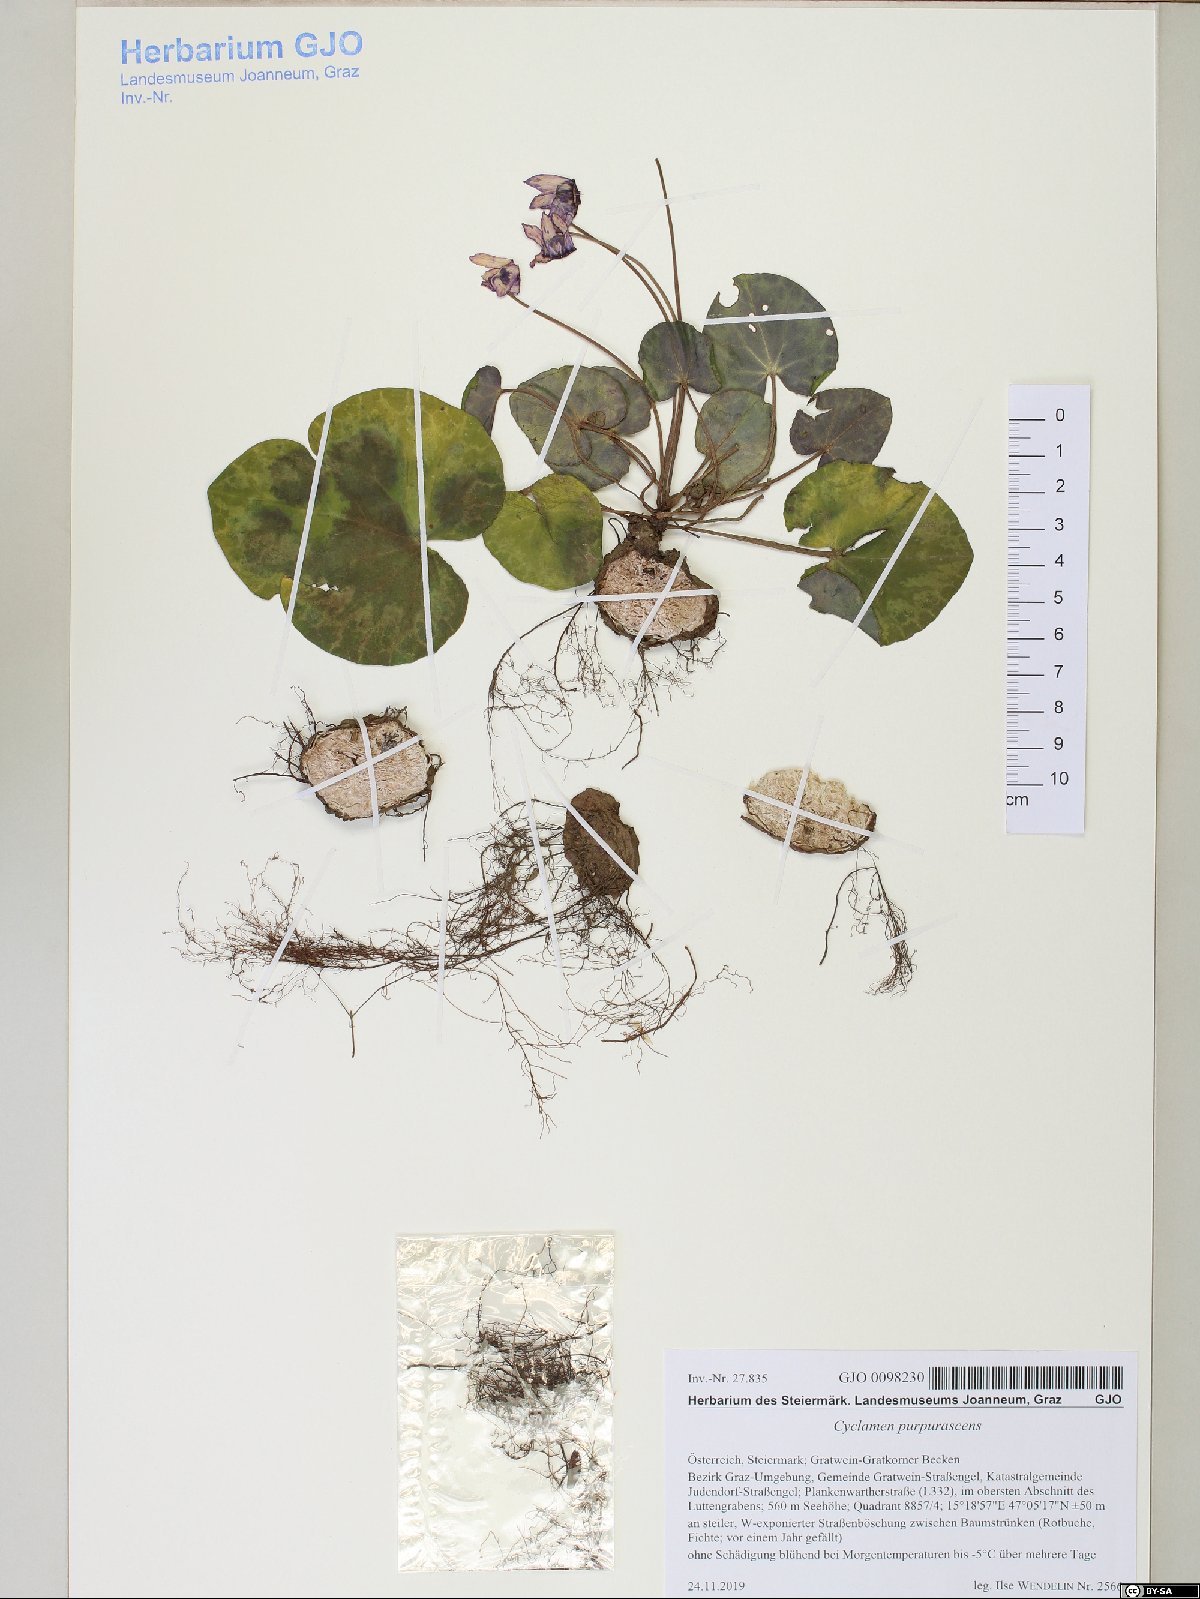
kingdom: Plantae
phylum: Tracheophyta
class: Magnoliopsida
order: Ericales
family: Primulaceae
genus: Cyclamen
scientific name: Cyclamen purpurascens
